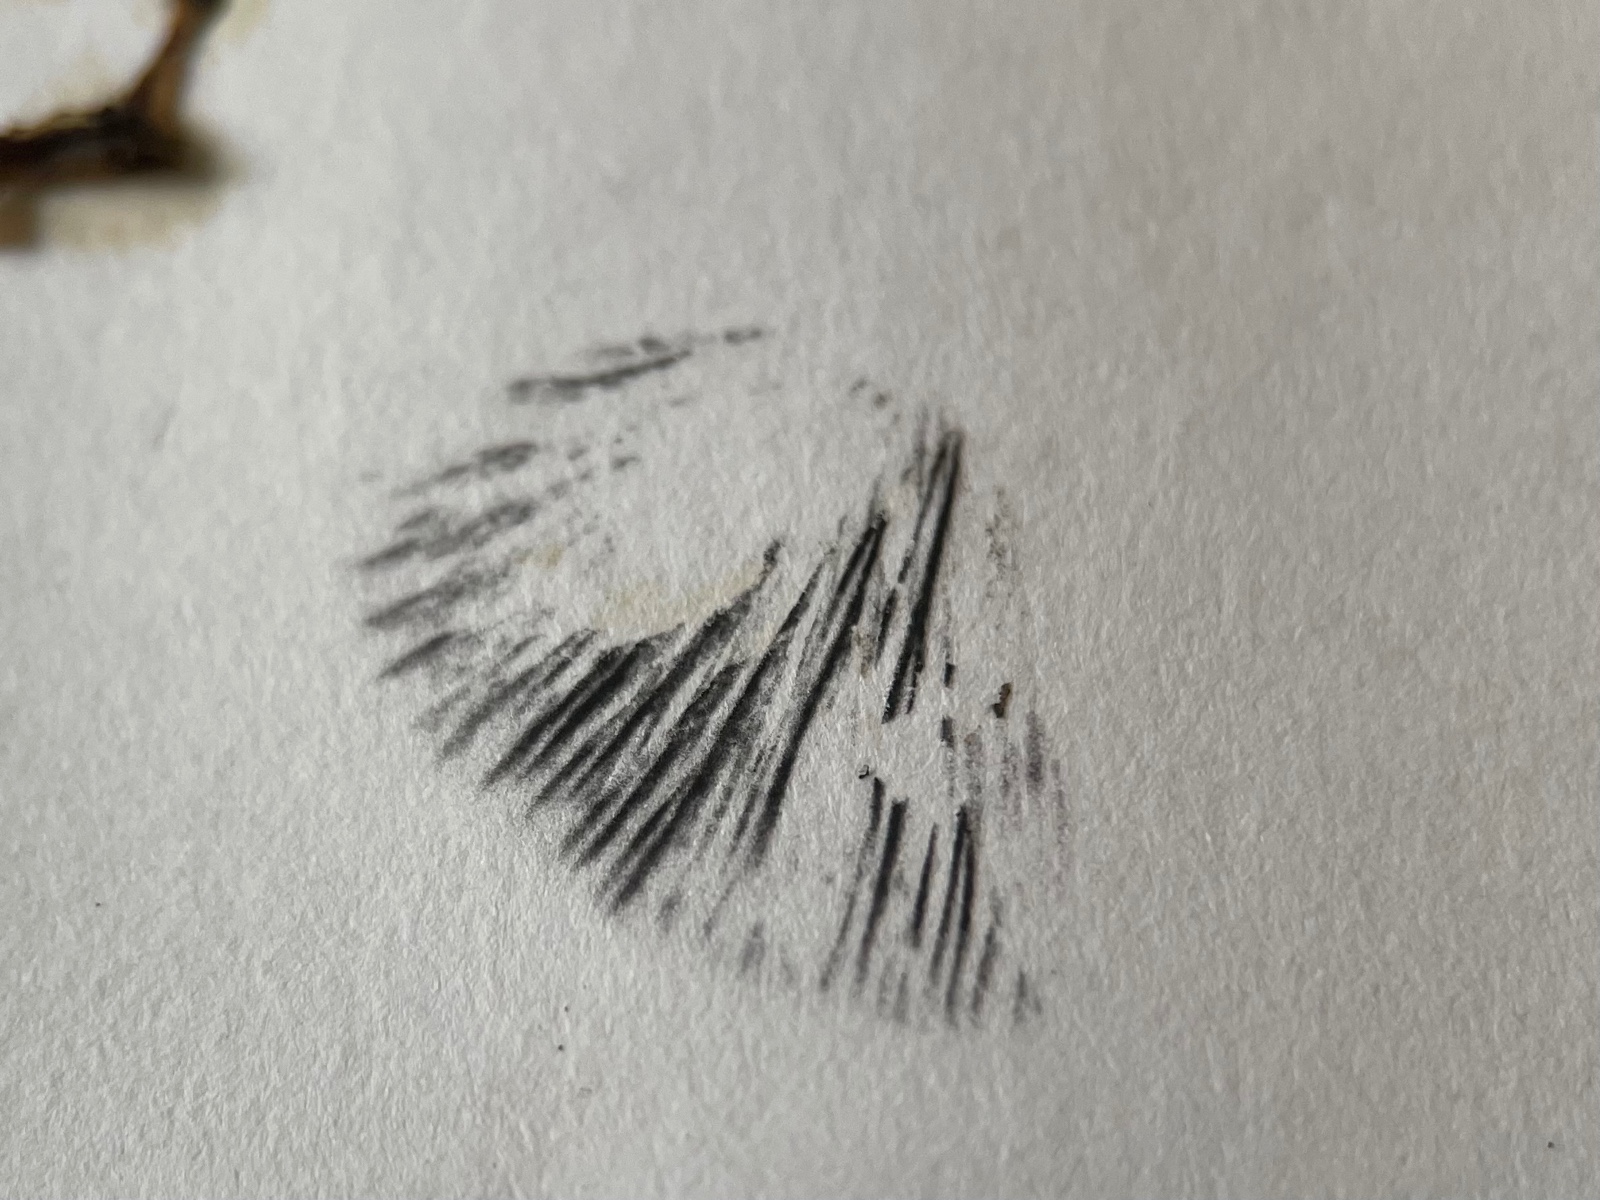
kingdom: Fungi
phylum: Basidiomycota
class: Agaricomycetes
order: Agaricales
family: Bolbitiaceae
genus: Panaeolus
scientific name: Panaeolus
